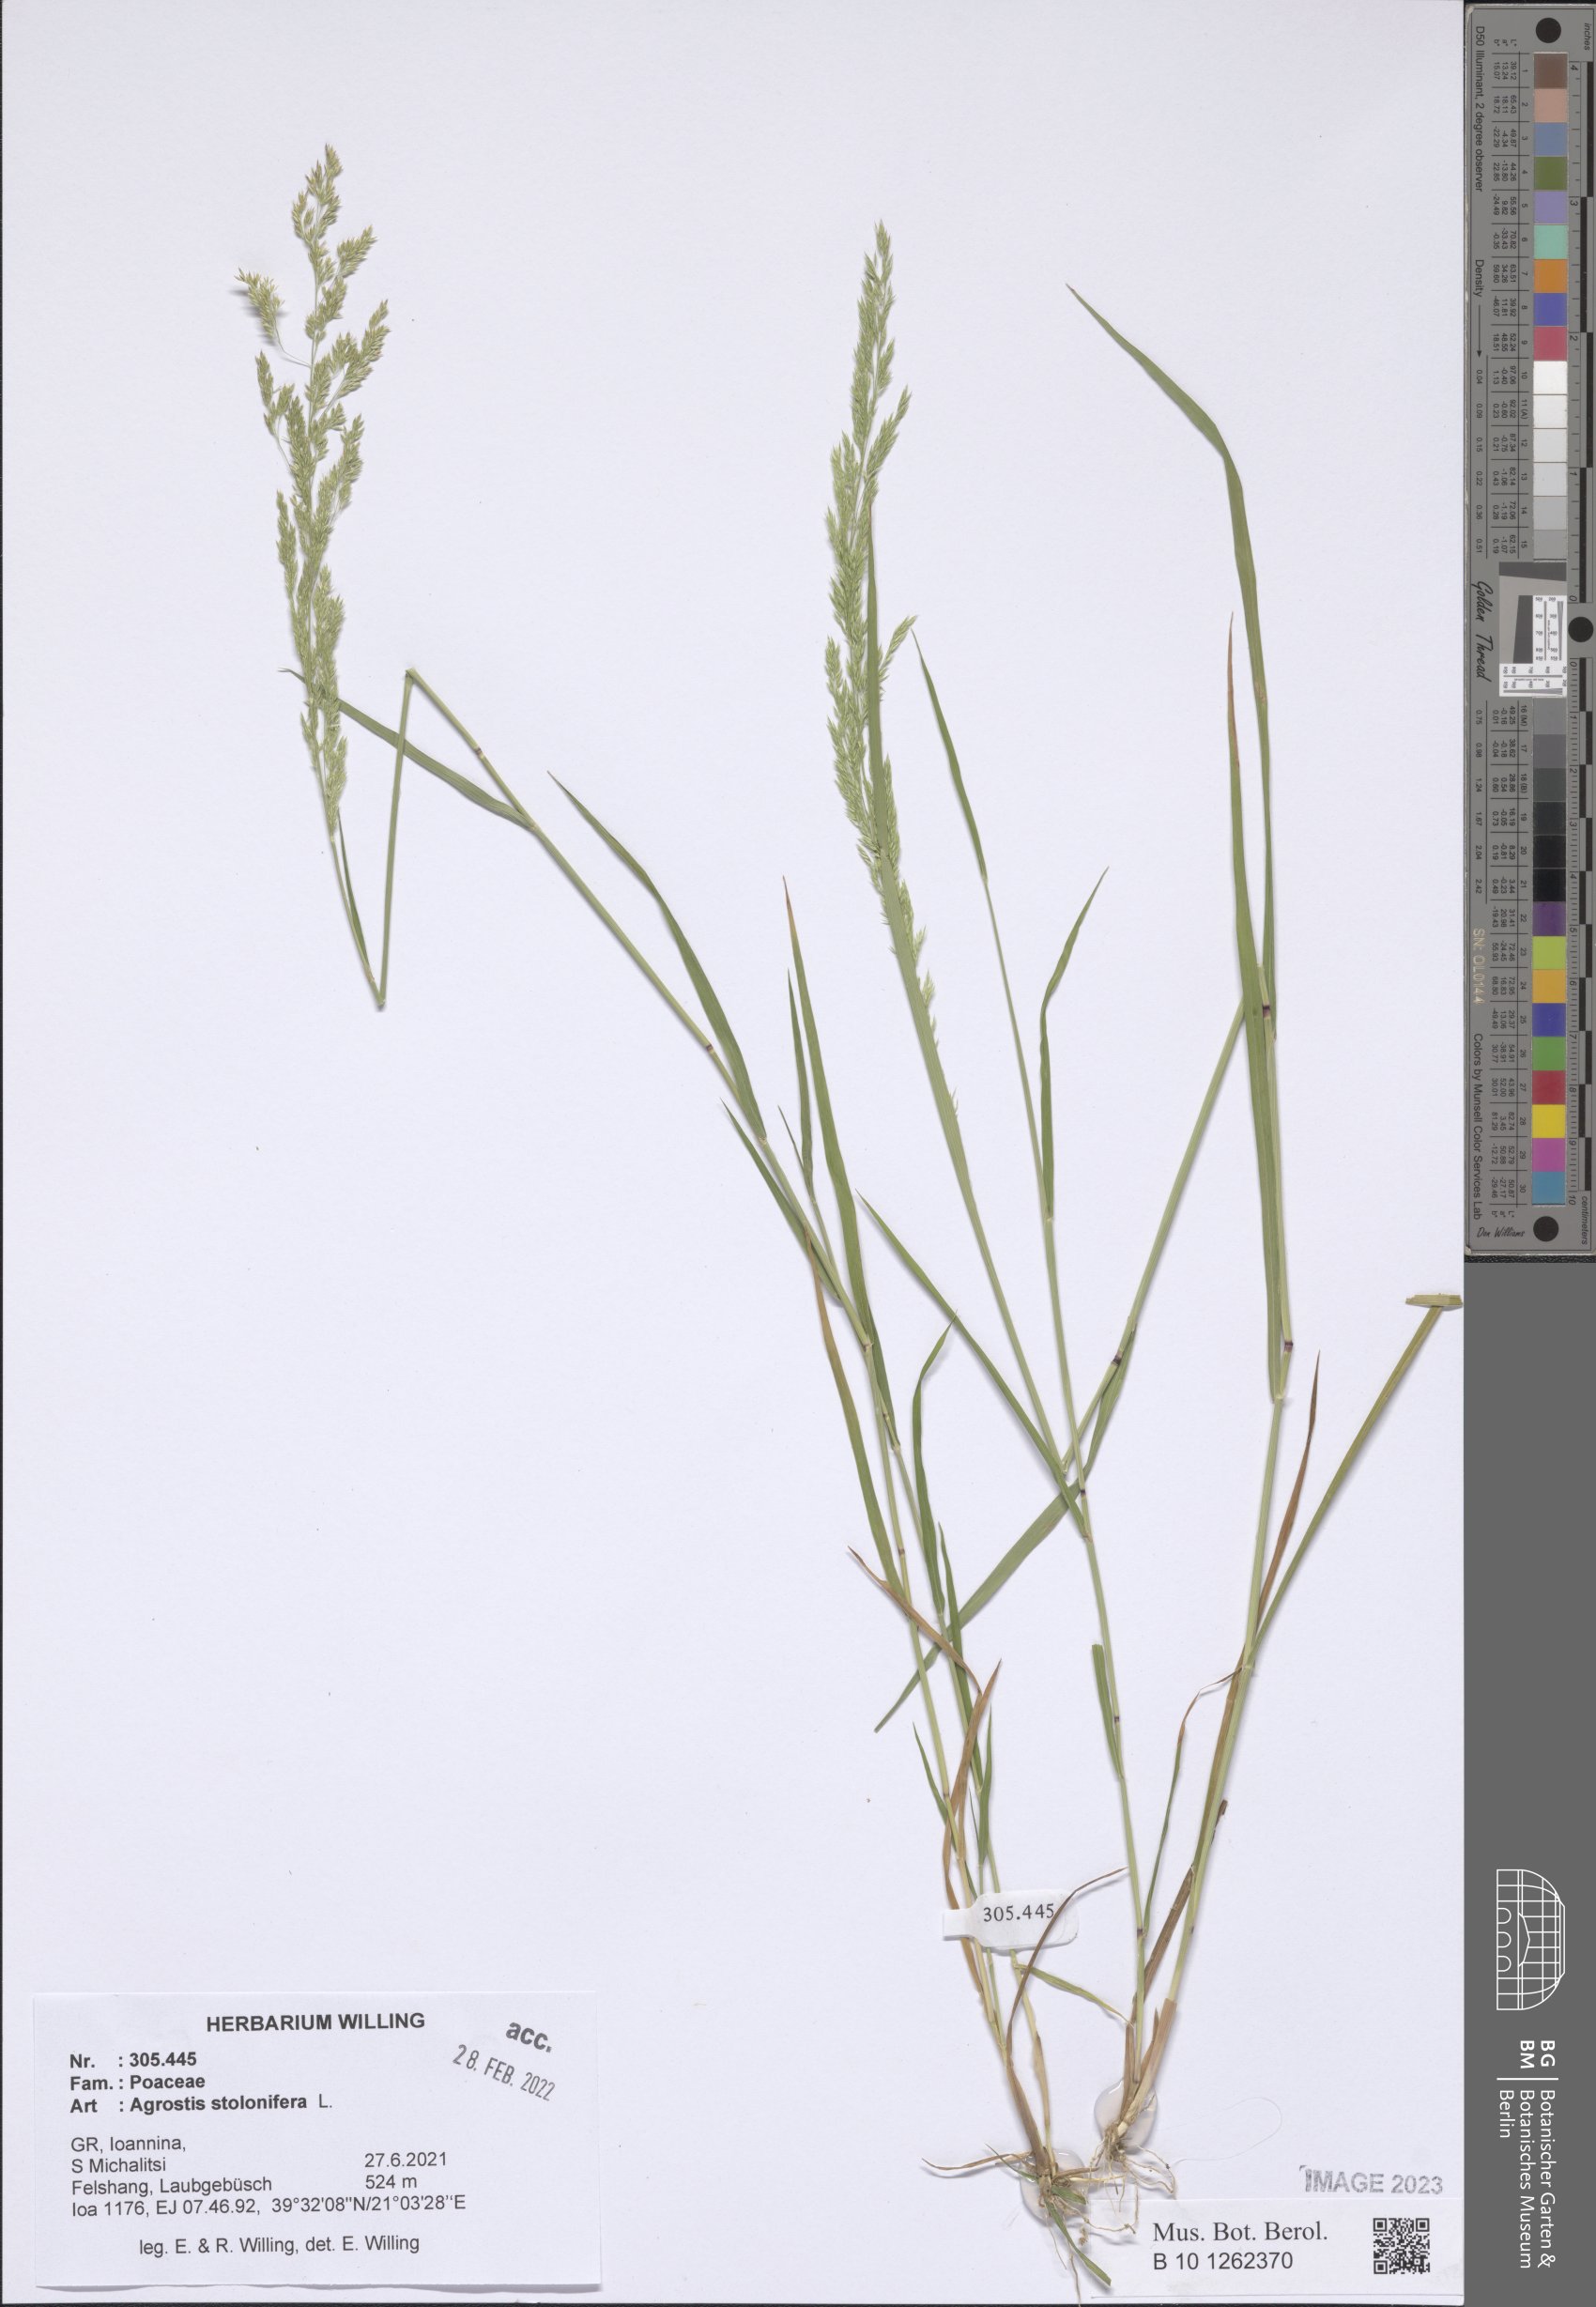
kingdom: Plantae
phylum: Tracheophyta
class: Liliopsida
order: Poales
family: Poaceae
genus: Agrostis
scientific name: Agrostis stolonifera
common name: Creeping bentgrass
